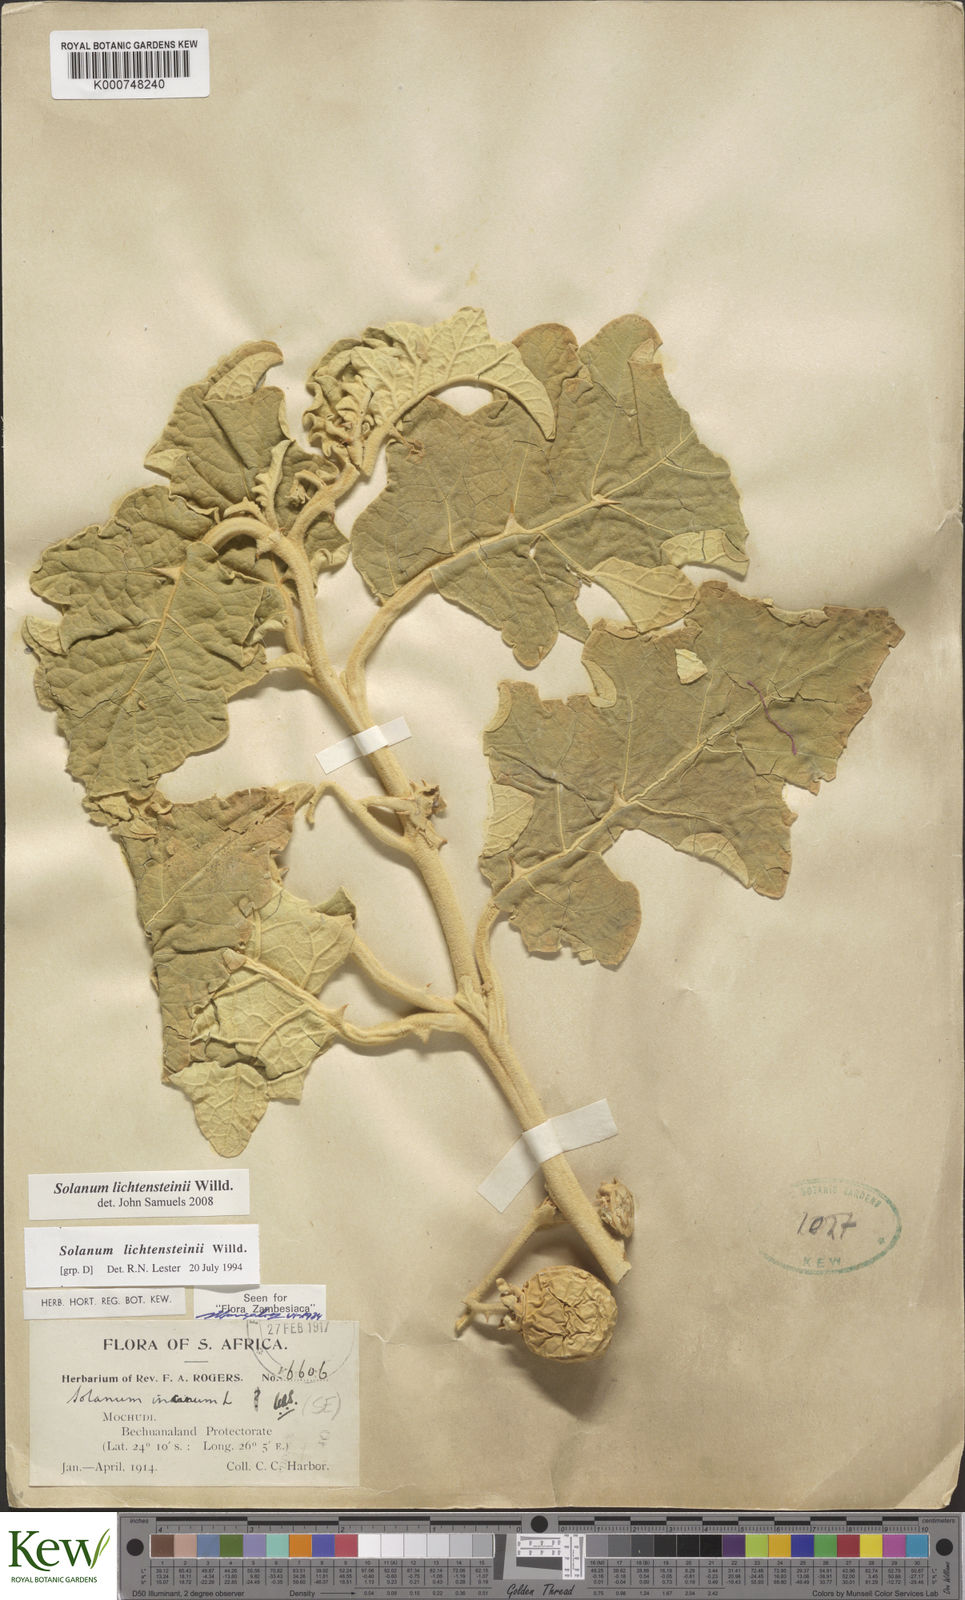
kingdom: Plantae
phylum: Tracheophyta
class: Magnoliopsida
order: Solanales
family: Solanaceae
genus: Solanum
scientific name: Solanum lichtensteinii
